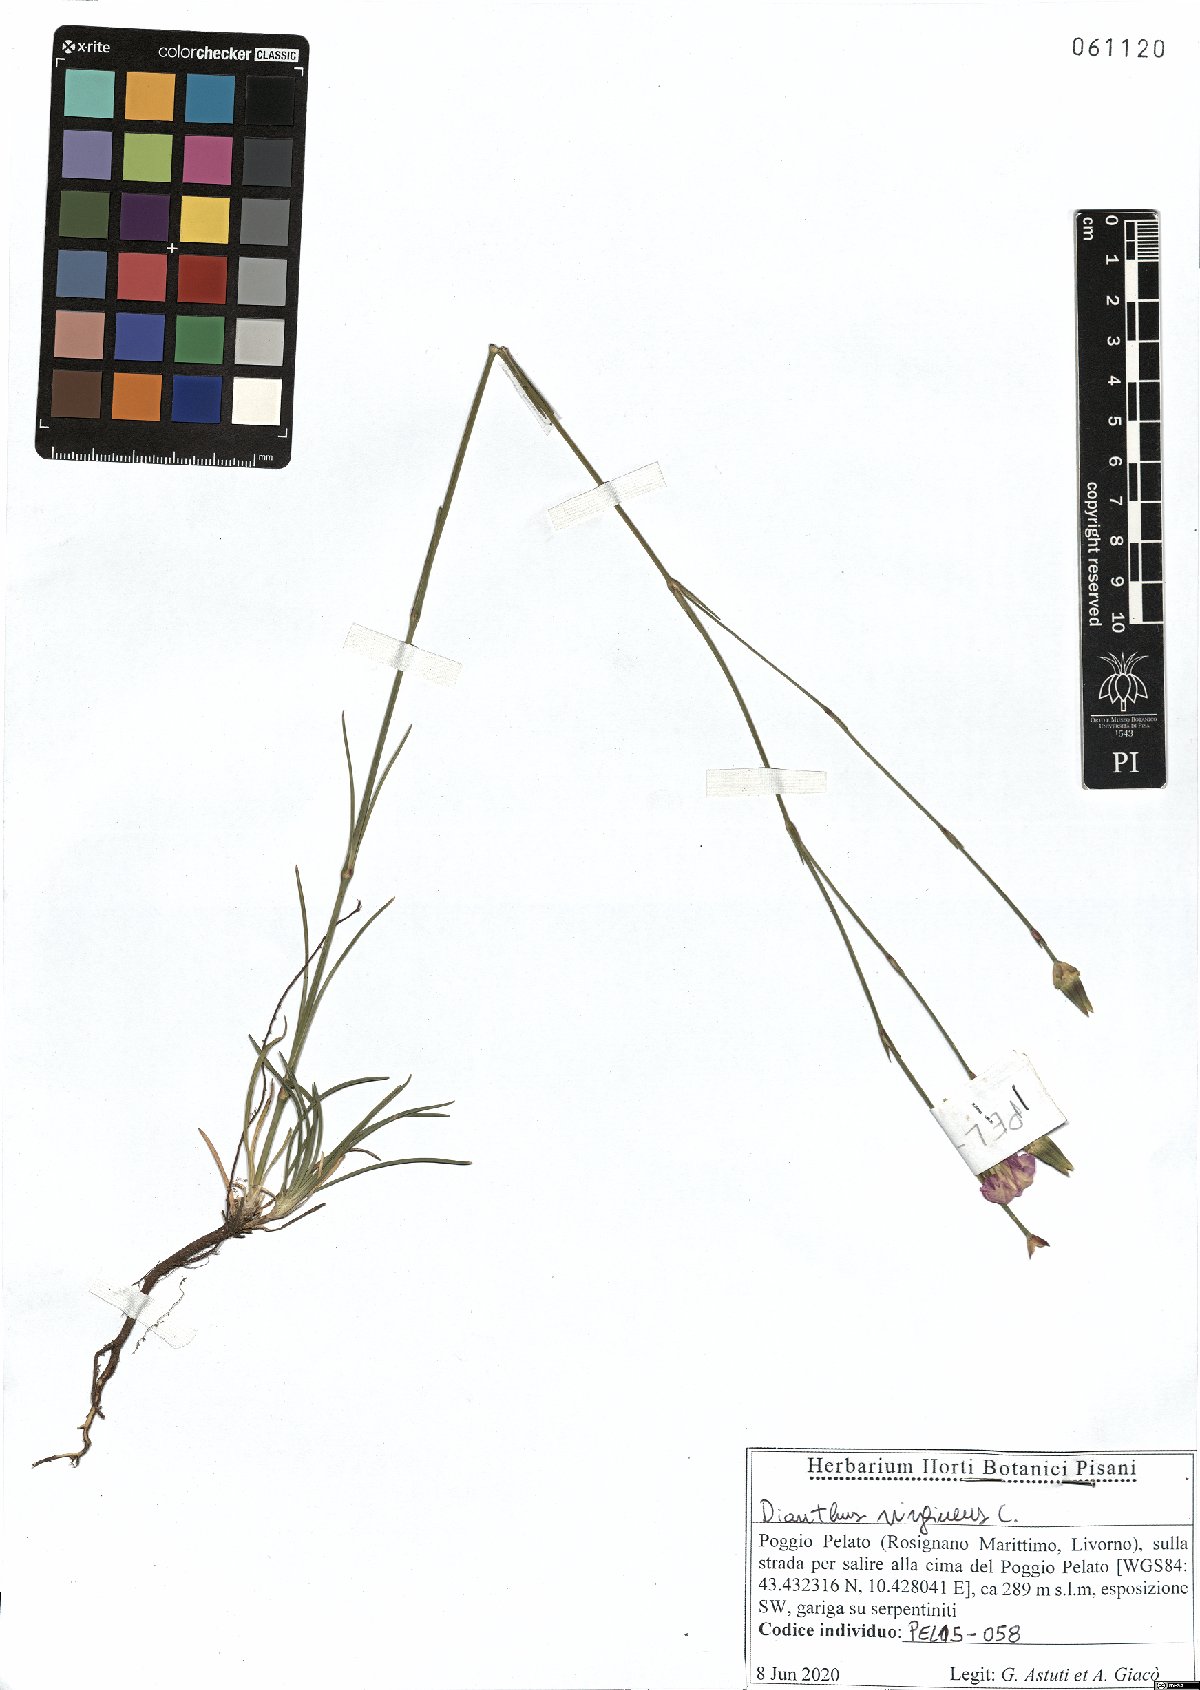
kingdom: Plantae
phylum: Tracheophyta
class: Magnoliopsida
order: Caryophyllales
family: Caryophyllaceae
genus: Dianthus
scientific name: Dianthus virgineus
